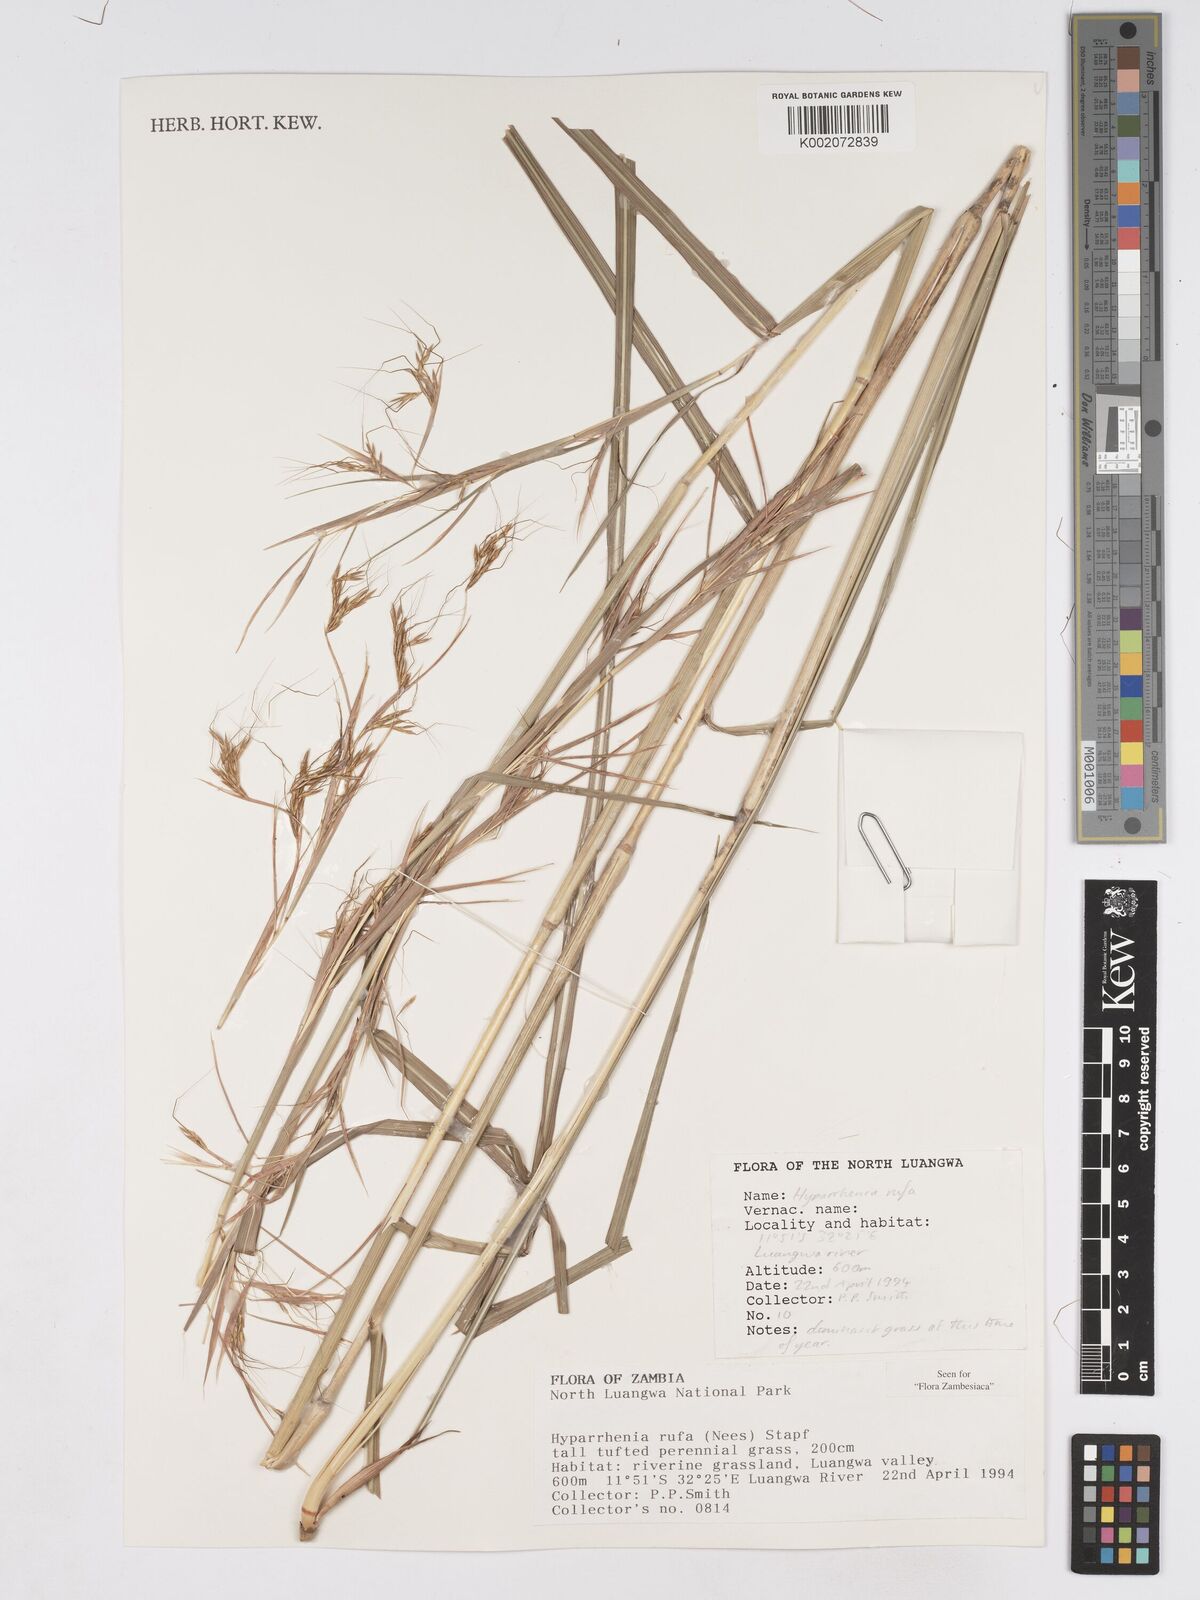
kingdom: Plantae
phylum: Tracheophyta
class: Liliopsida
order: Poales
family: Poaceae
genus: Hyparrhenia
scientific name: Hyparrhenia rufa
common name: Jaraguagrass
